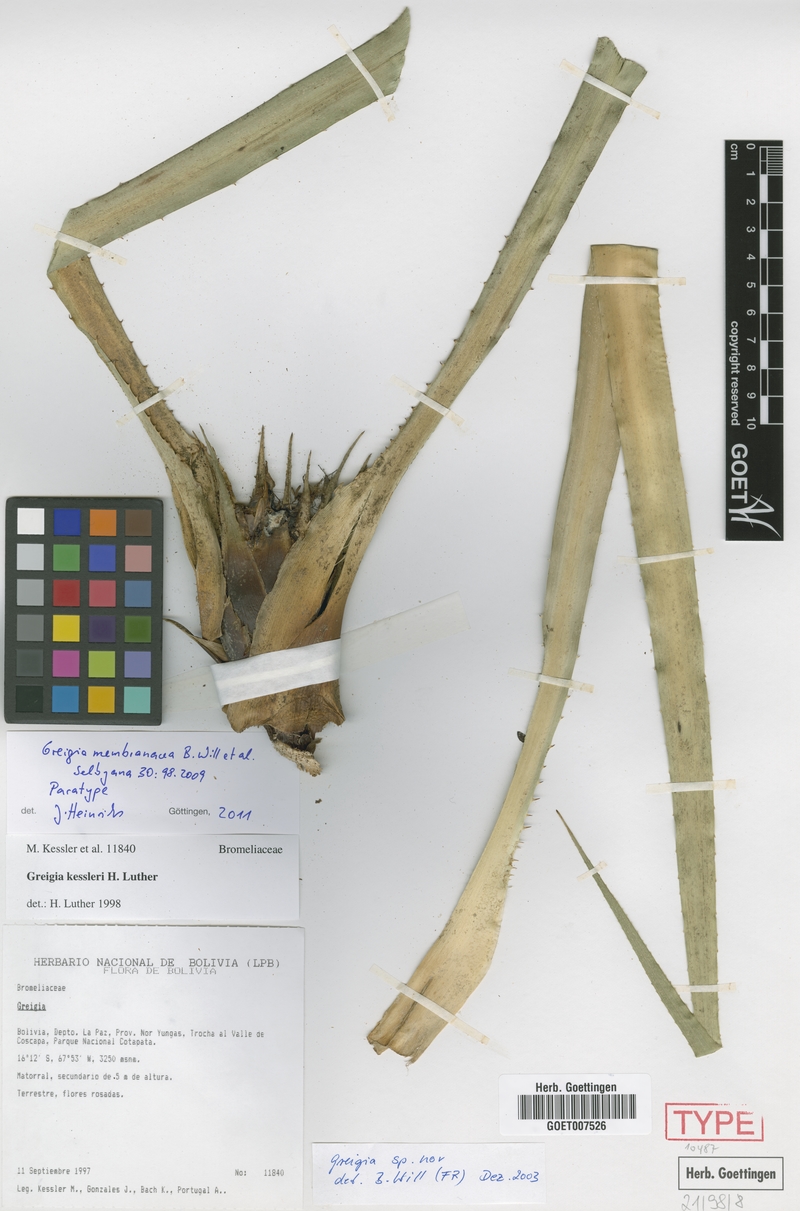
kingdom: Plantae
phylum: Tracheophyta
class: Liliopsida
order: Poales
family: Bromeliaceae
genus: Greigia
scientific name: Greigia membranacea
